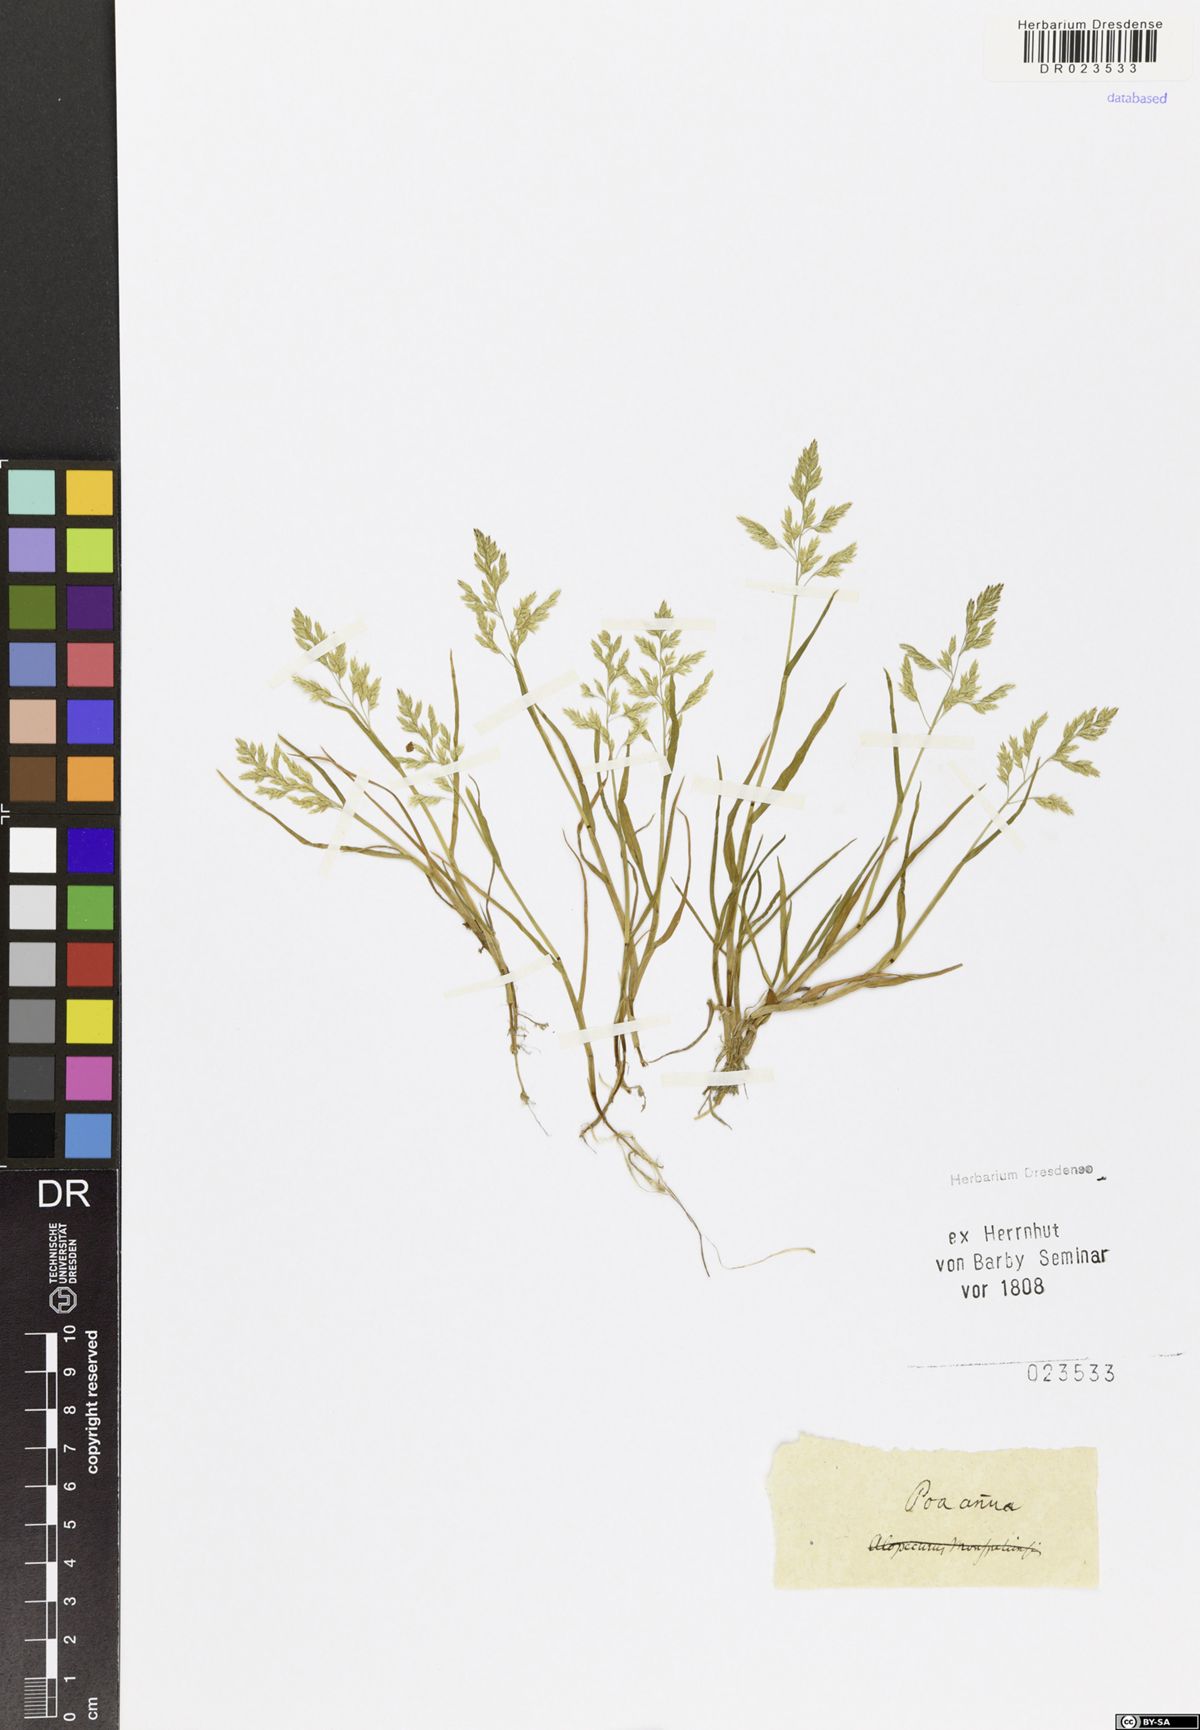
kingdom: Plantae
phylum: Tracheophyta
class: Liliopsida
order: Poales
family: Poaceae
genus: Poa
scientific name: Poa annua
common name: Annual bluegrass
